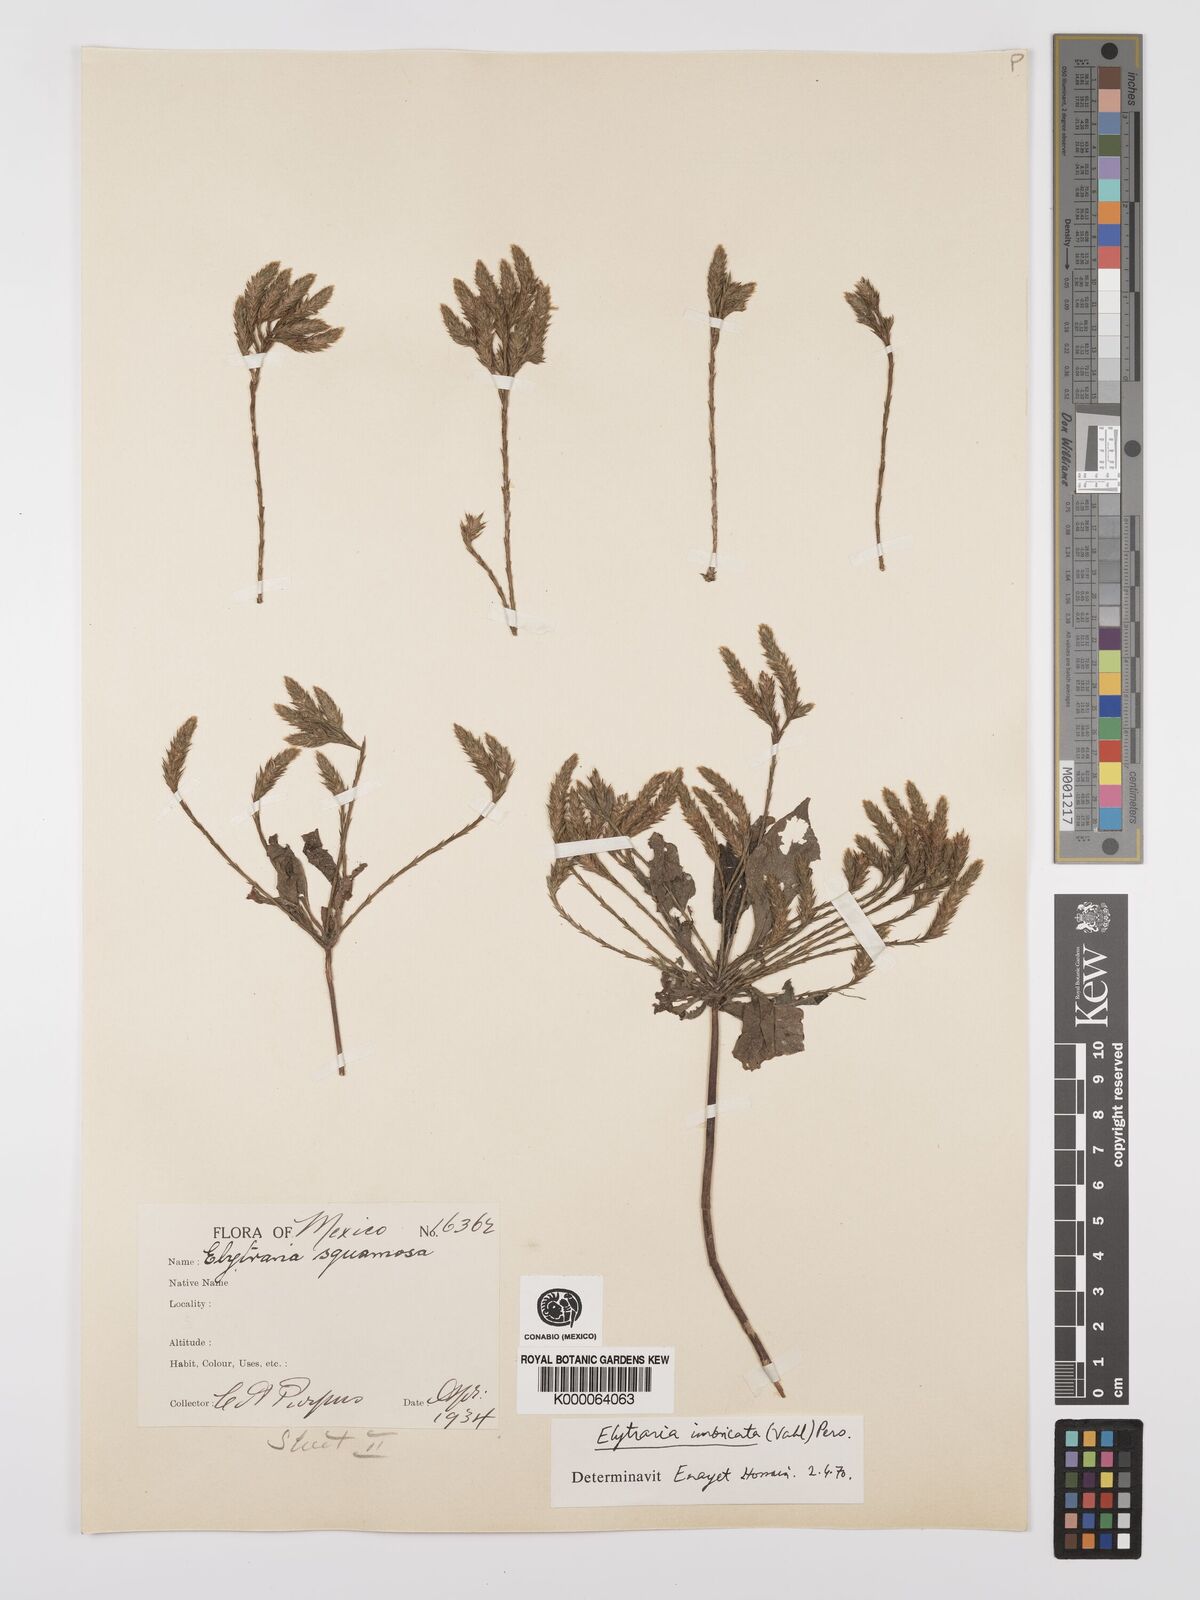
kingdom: Plantae
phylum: Tracheophyta
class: Magnoliopsida
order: Lamiales
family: Acanthaceae
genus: Elytraria
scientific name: Elytraria imbricata
